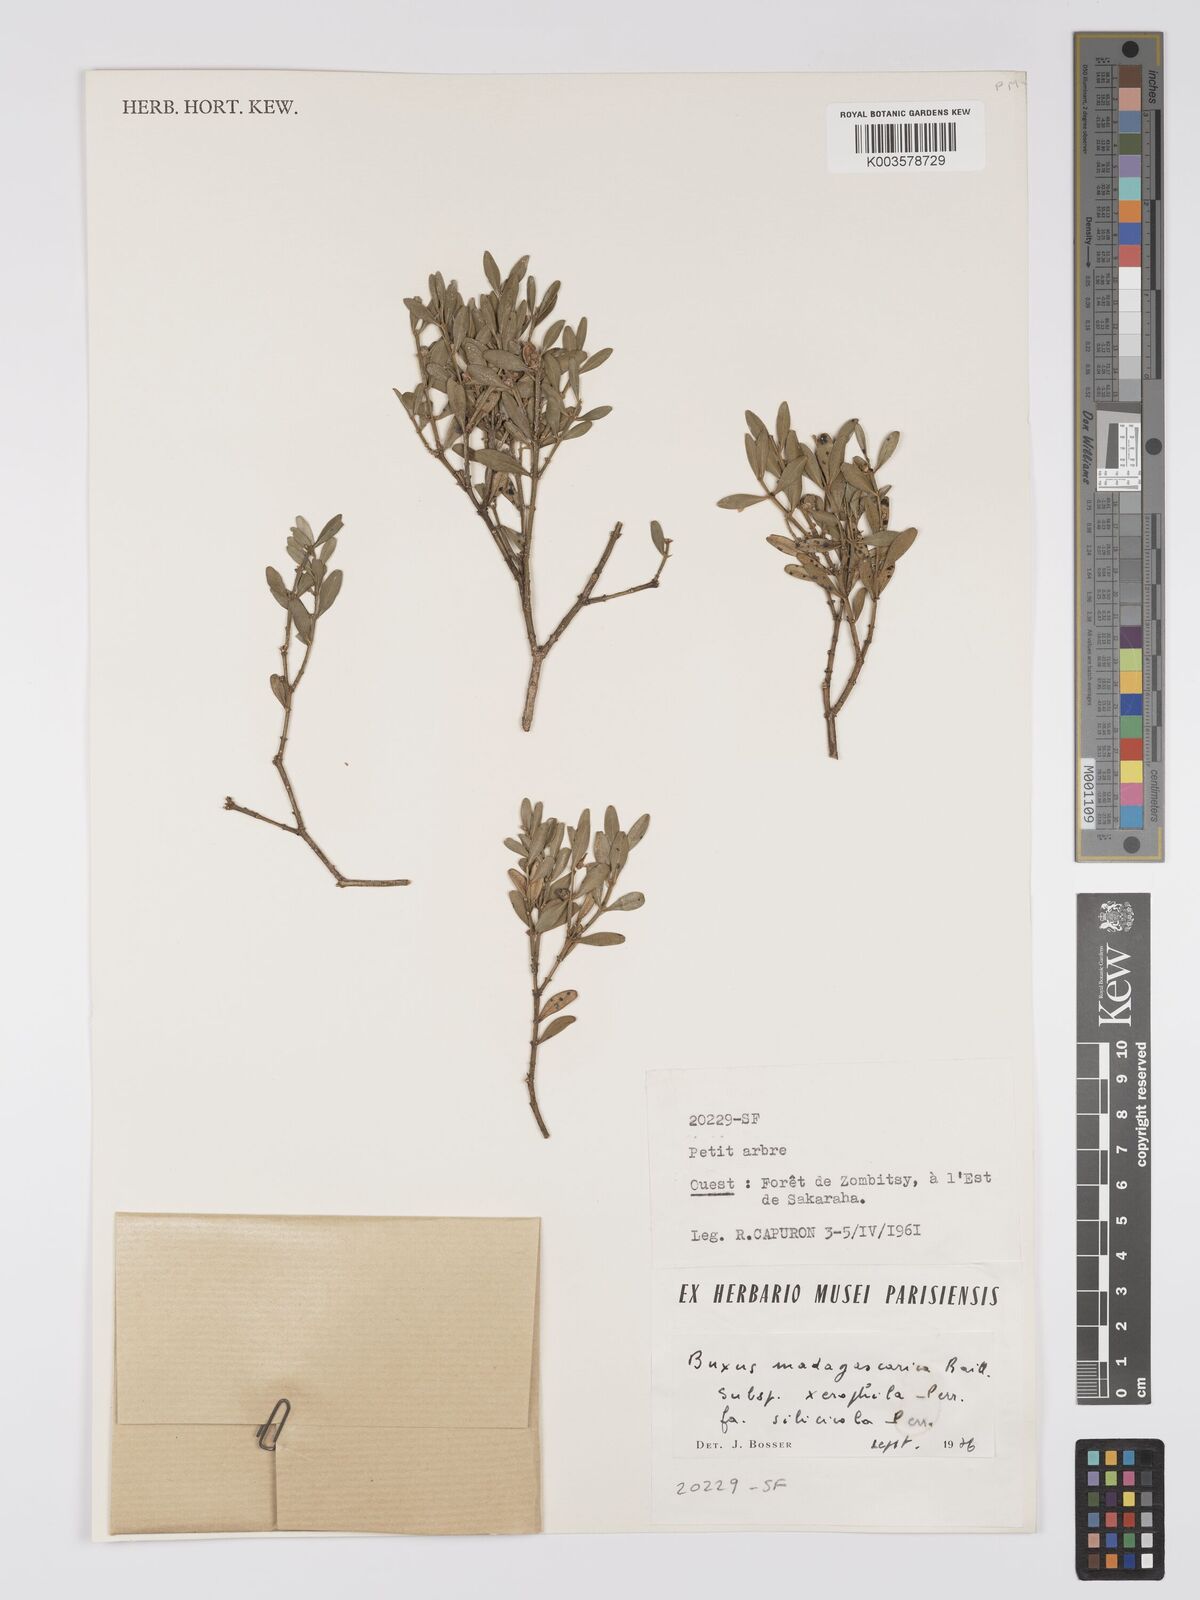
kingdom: Plantae
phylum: Tracheophyta
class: Magnoliopsida
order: Buxales
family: Buxaceae
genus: Buxus
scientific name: Buxus madagascarica
